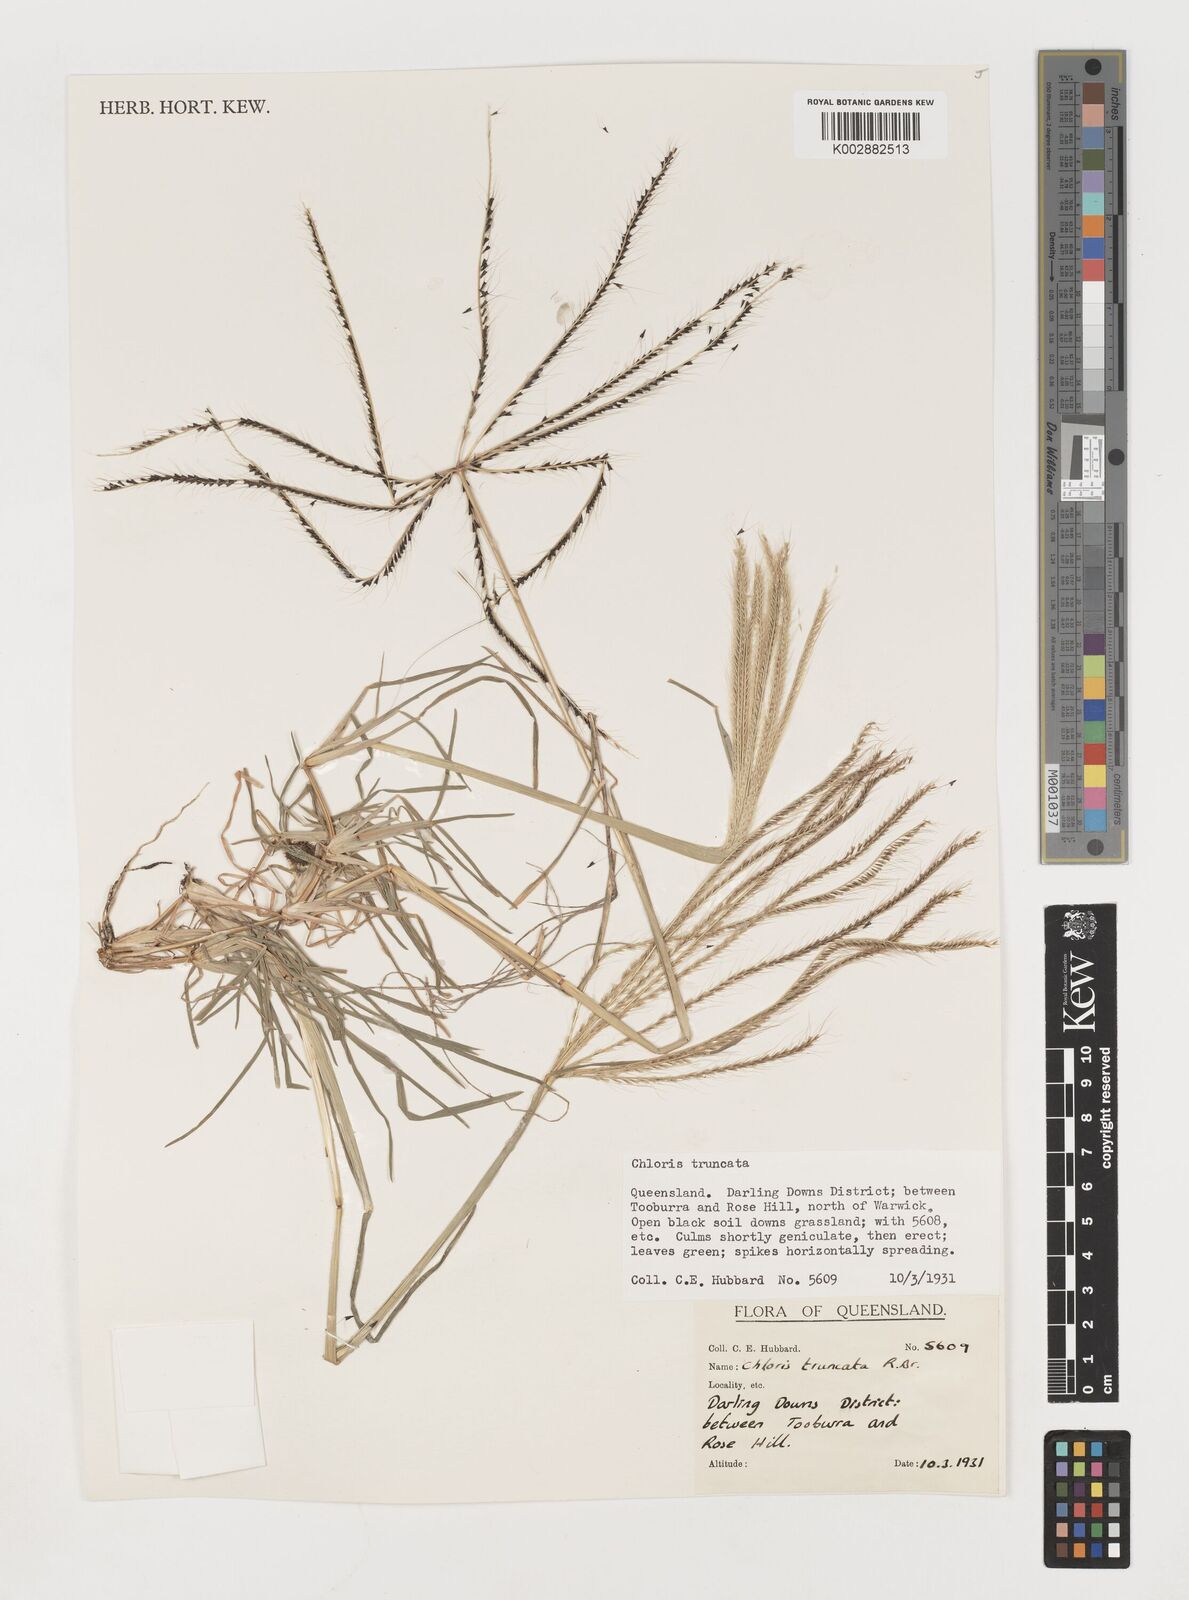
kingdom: Plantae
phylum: Tracheophyta
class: Liliopsida
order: Poales
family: Poaceae
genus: Chloris
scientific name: Chloris truncata
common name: Windmill-grass
